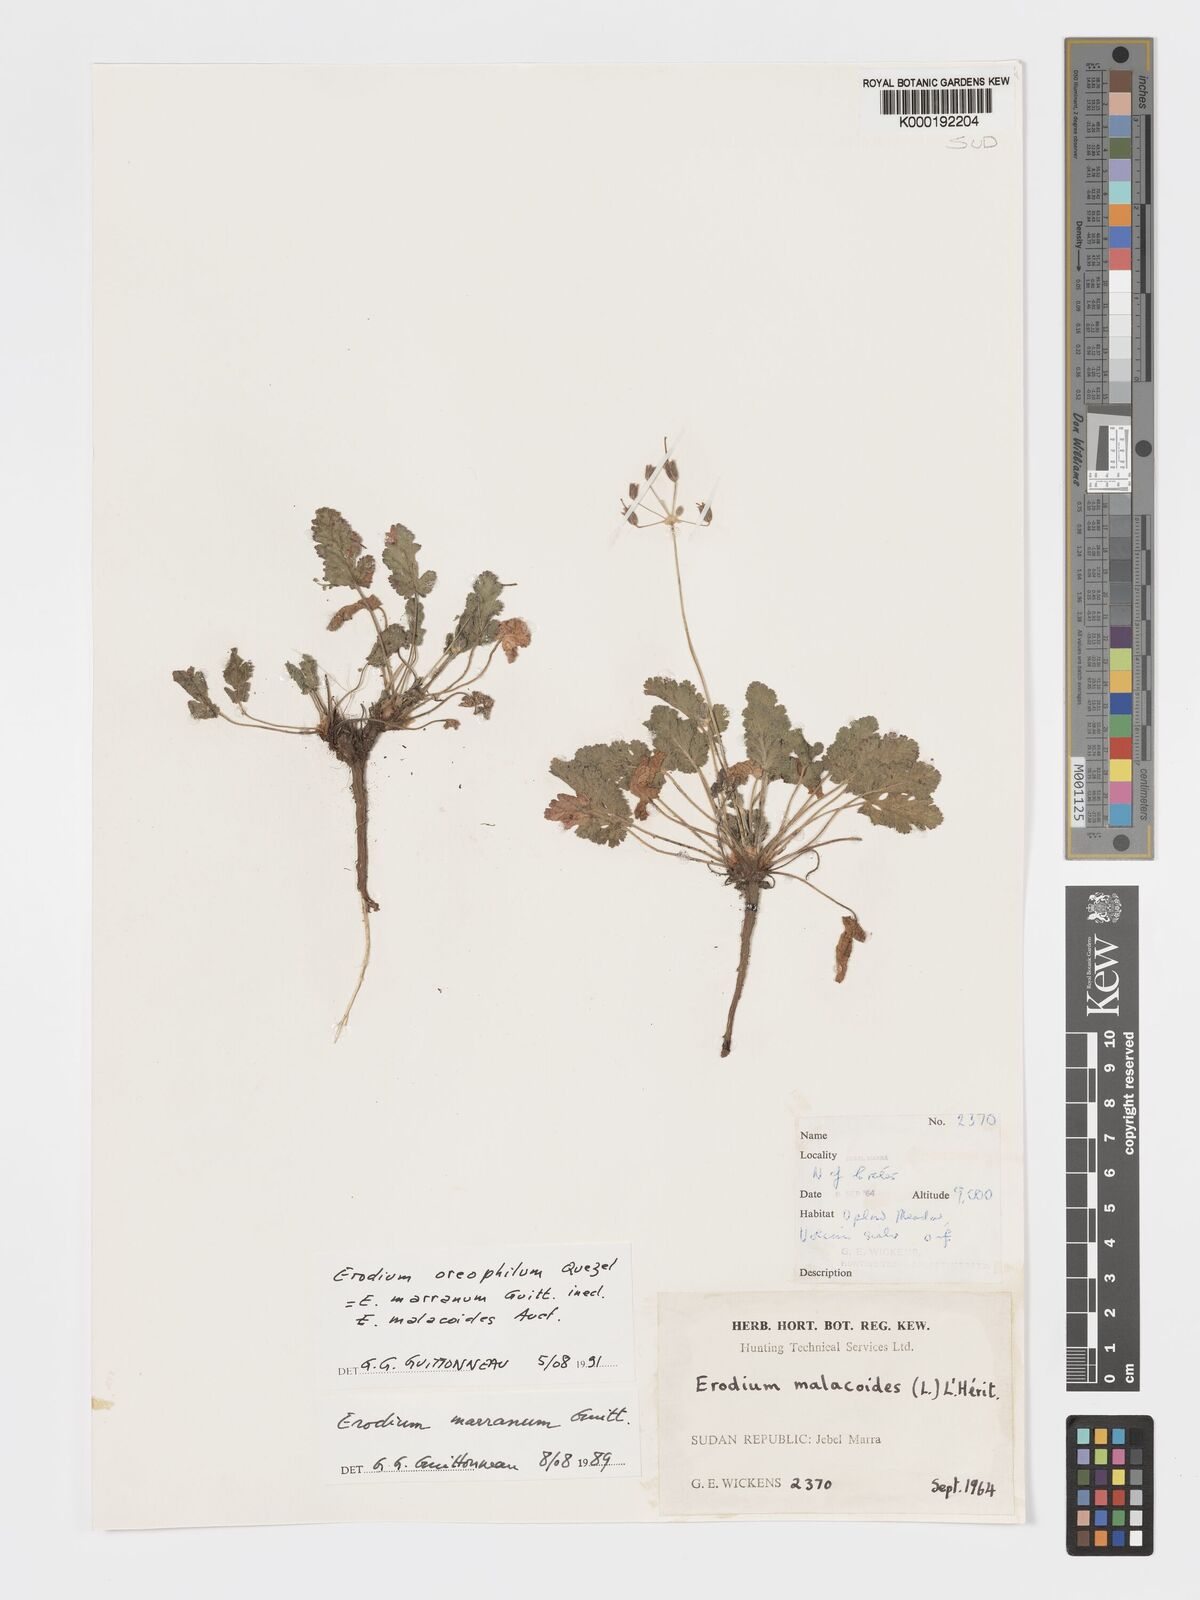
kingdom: Plantae
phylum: Tracheophyta
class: Magnoliopsida
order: Geraniales
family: Geraniaceae
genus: Erodium
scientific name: Erodium oreophilum
